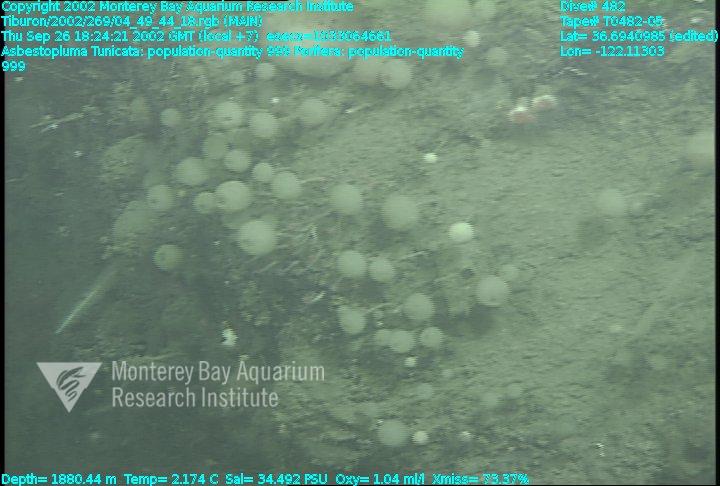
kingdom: Animalia
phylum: Porifera
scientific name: Porifera
